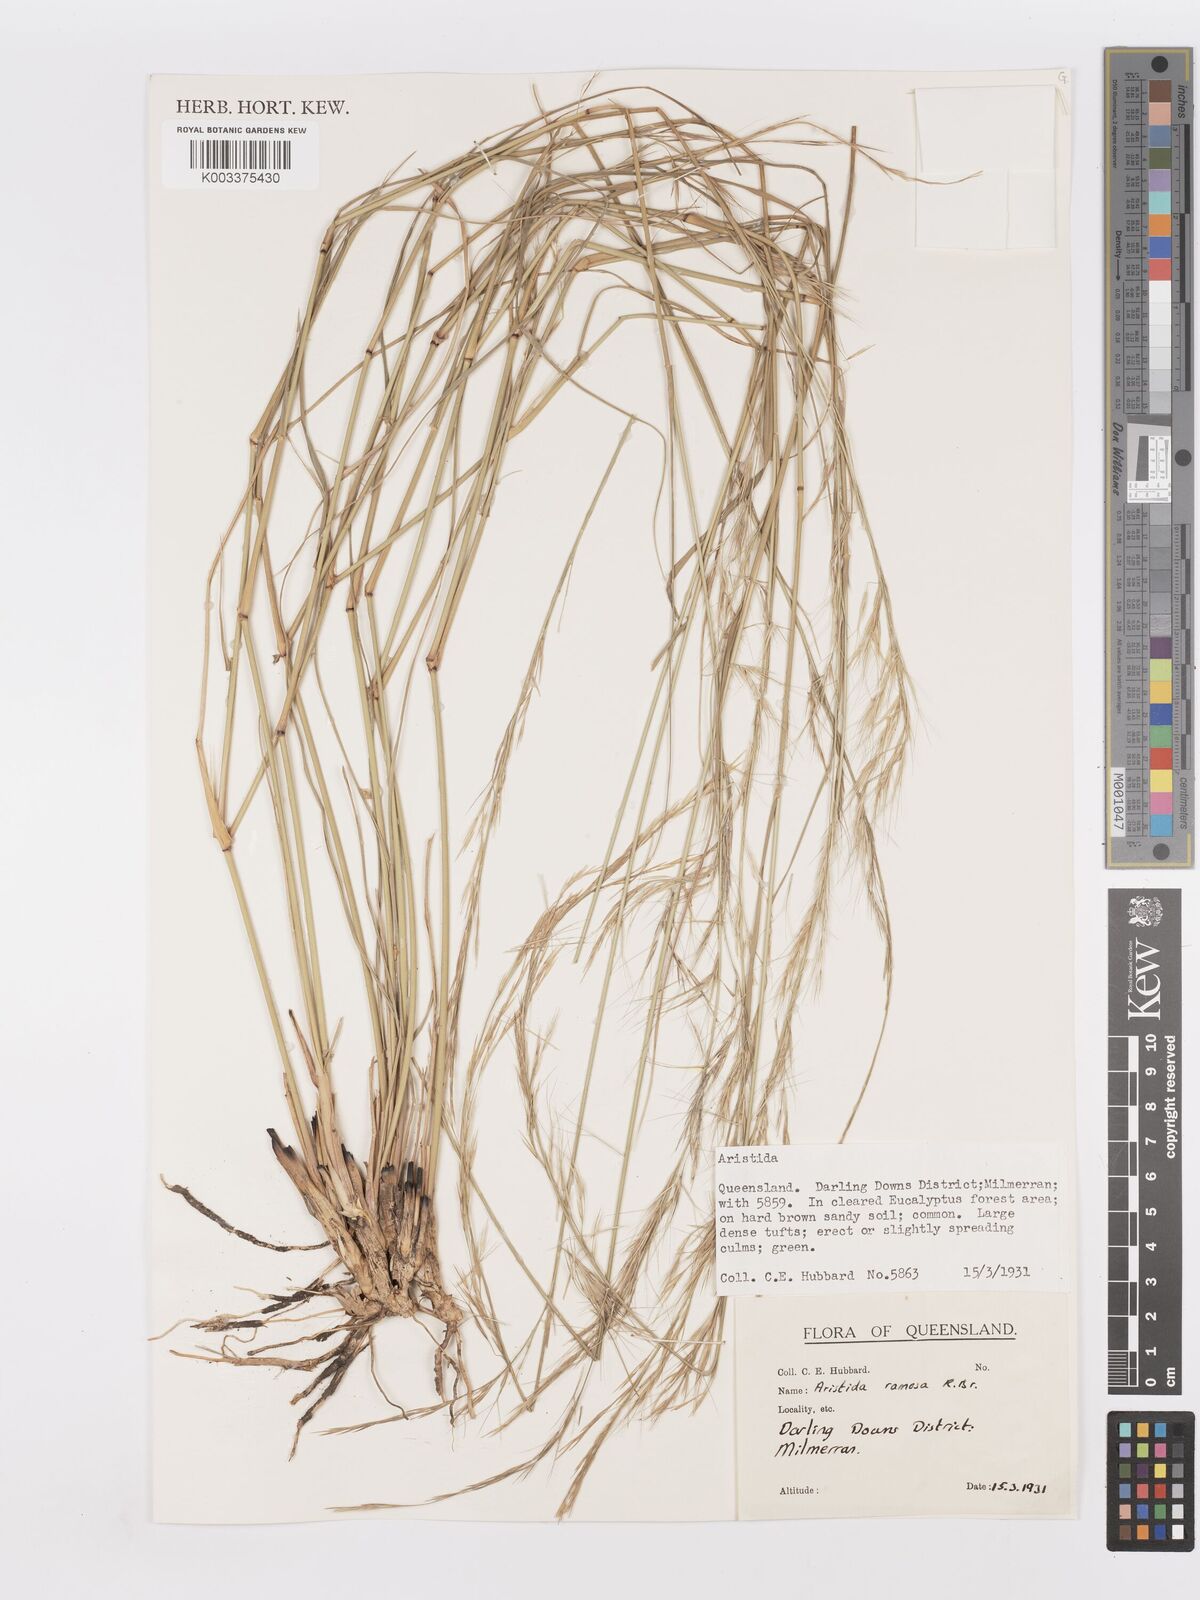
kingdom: Plantae
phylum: Tracheophyta
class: Liliopsida
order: Poales
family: Poaceae
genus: Aristida
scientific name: Aristida ramosa
